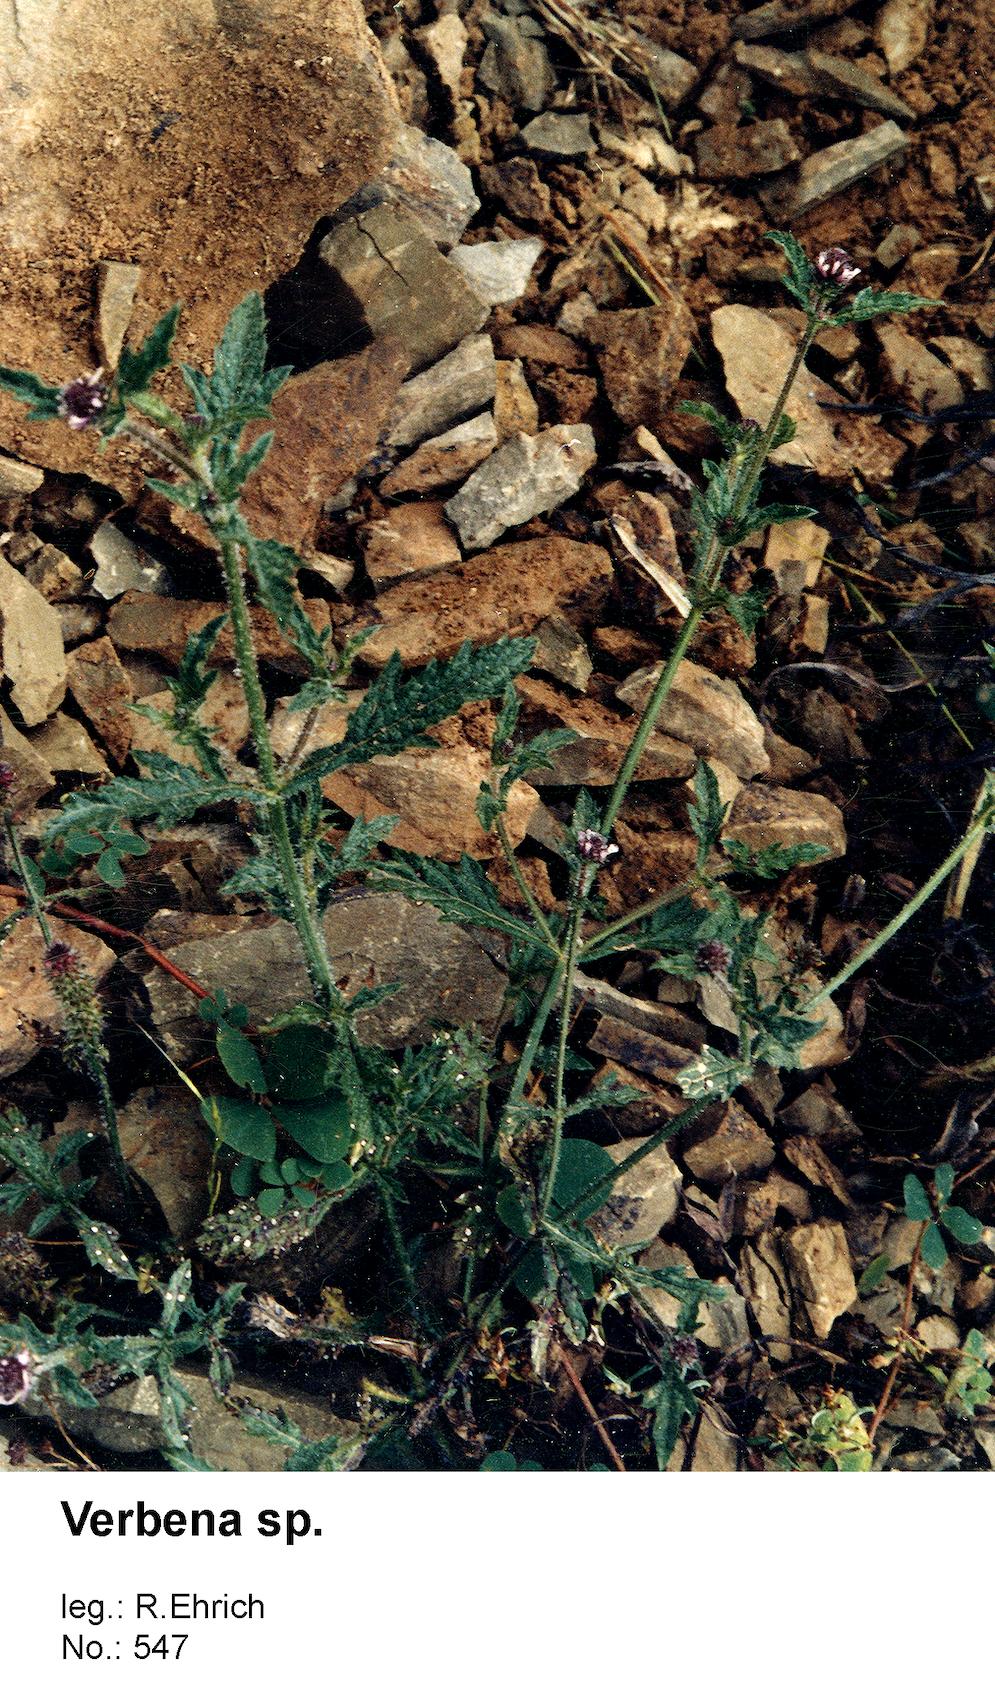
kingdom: Plantae
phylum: Tracheophyta
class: Magnoliopsida
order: Lamiales
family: Verbenaceae
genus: Verbena
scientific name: Verbena
